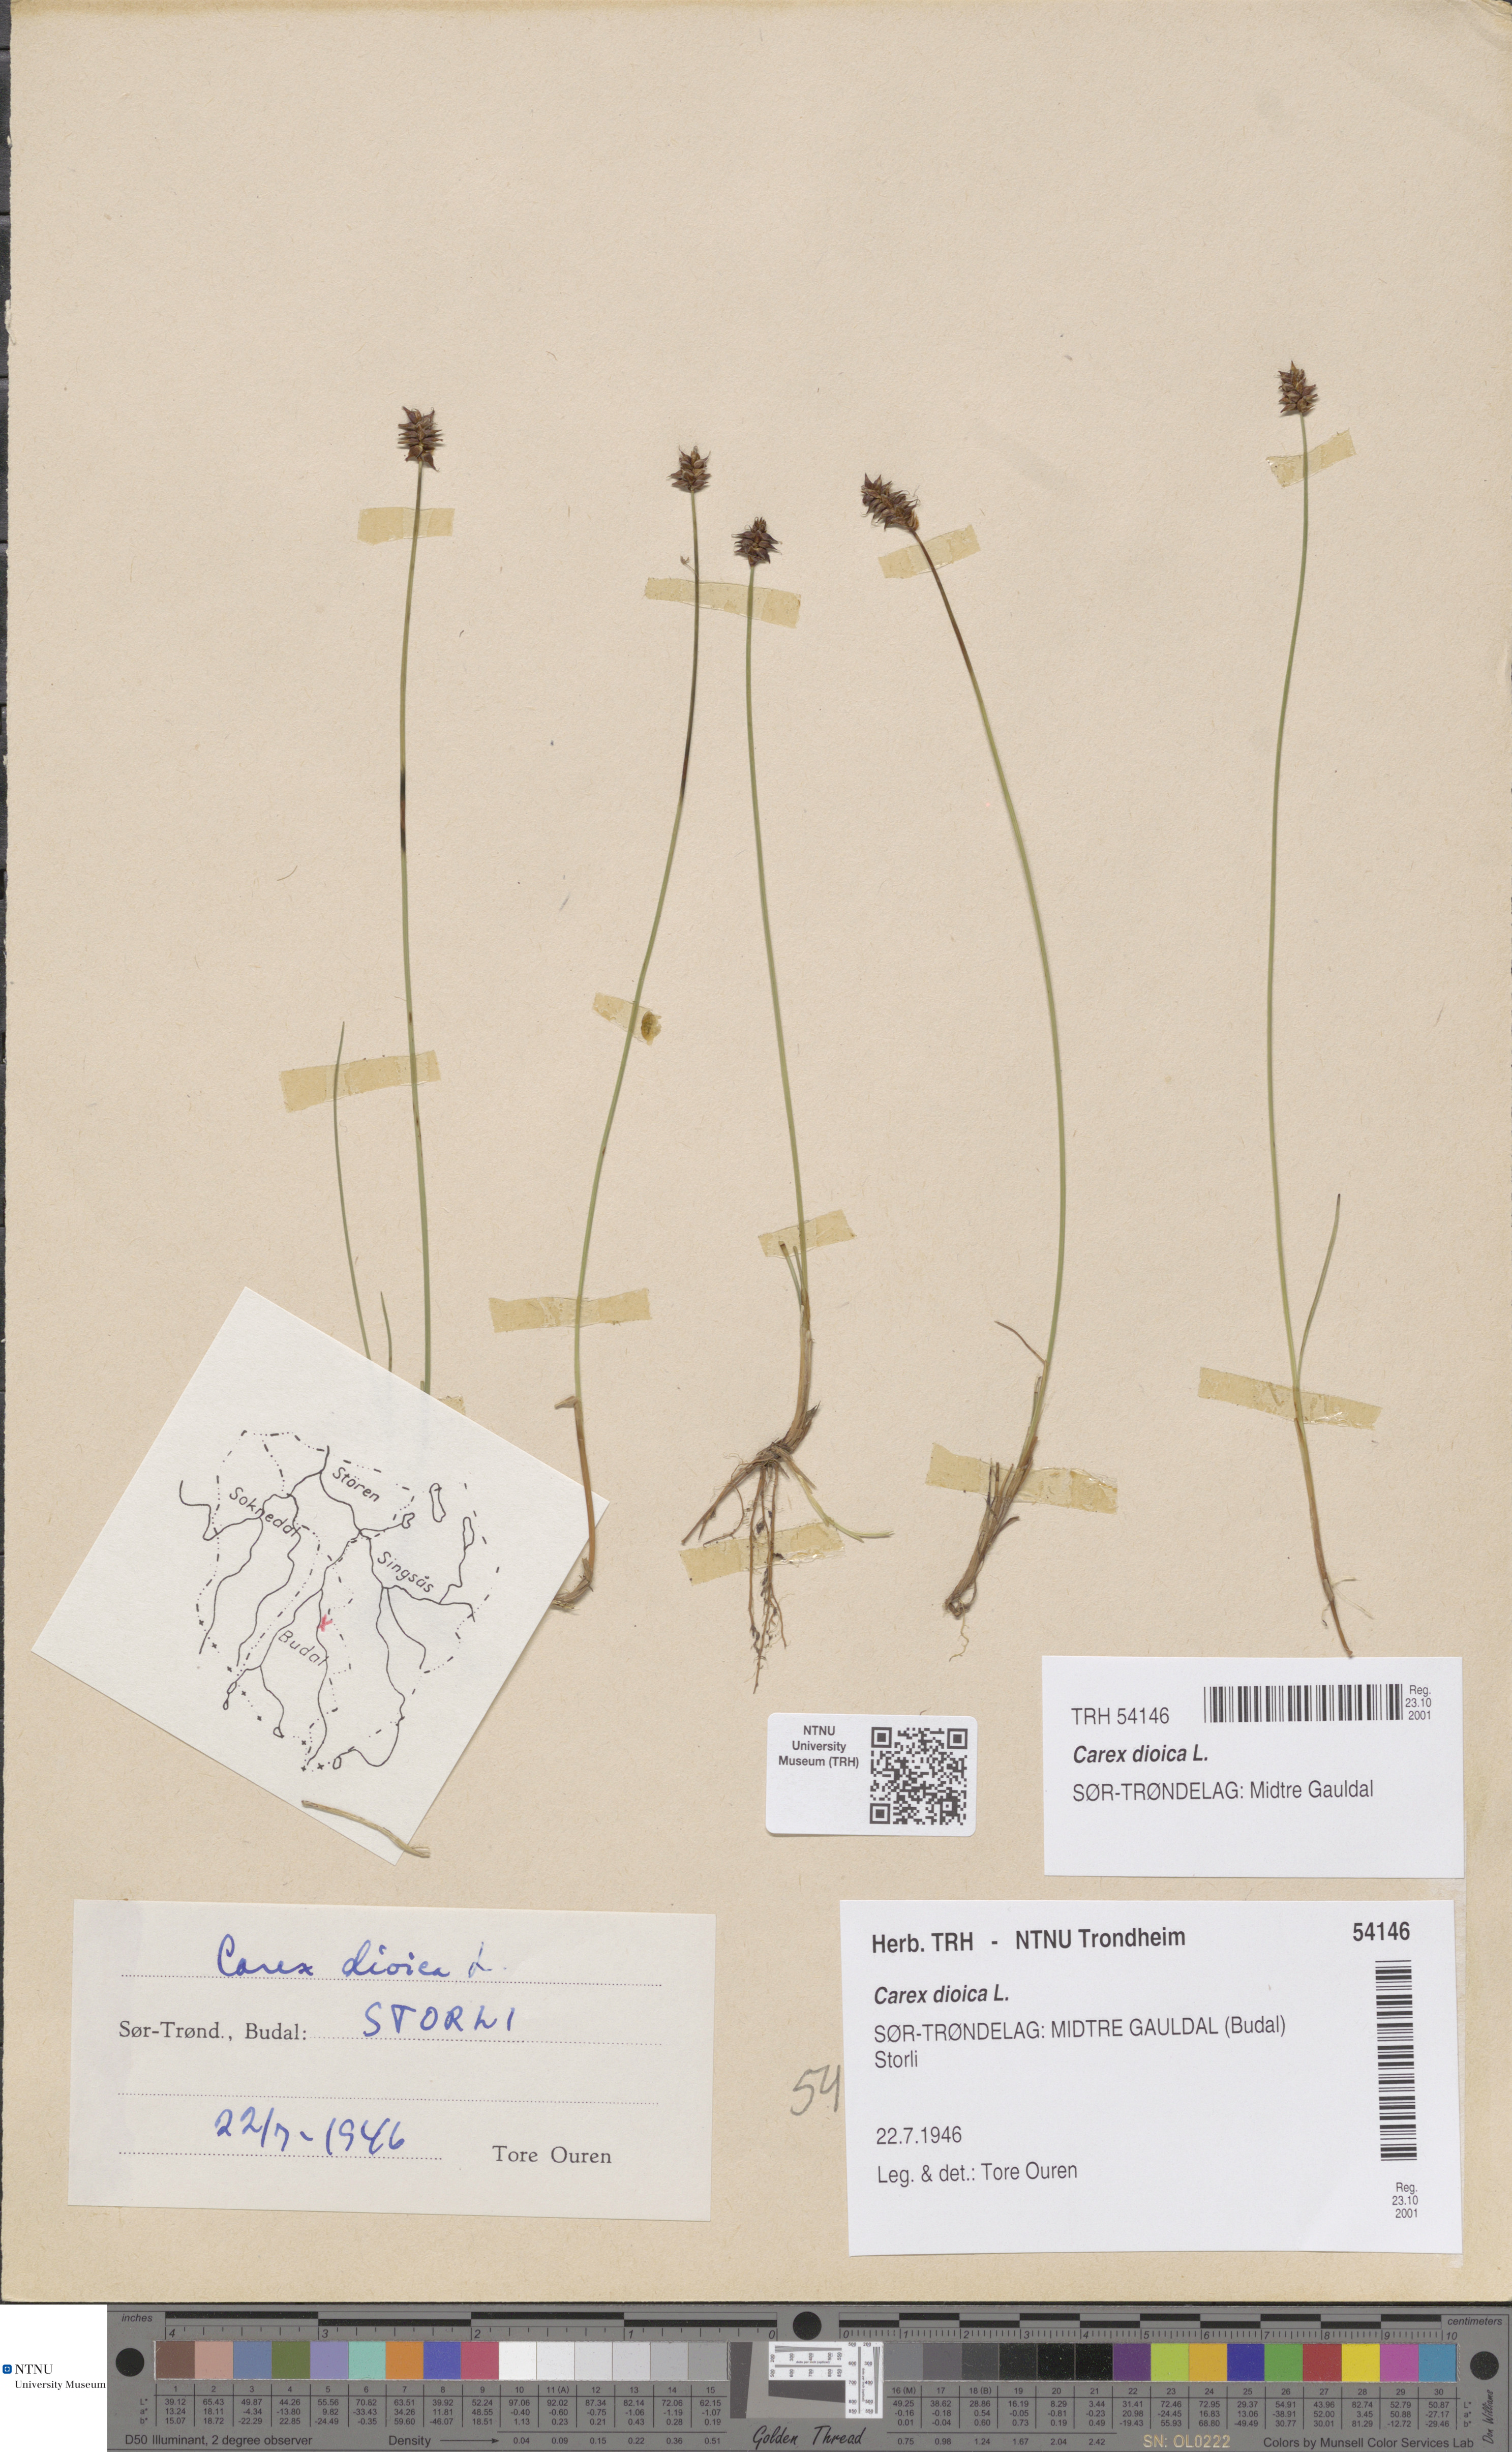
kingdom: Plantae
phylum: Tracheophyta
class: Liliopsida
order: Poales
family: Cyperaceae
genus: Carex
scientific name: Carex dioica
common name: Dioecious sedge
